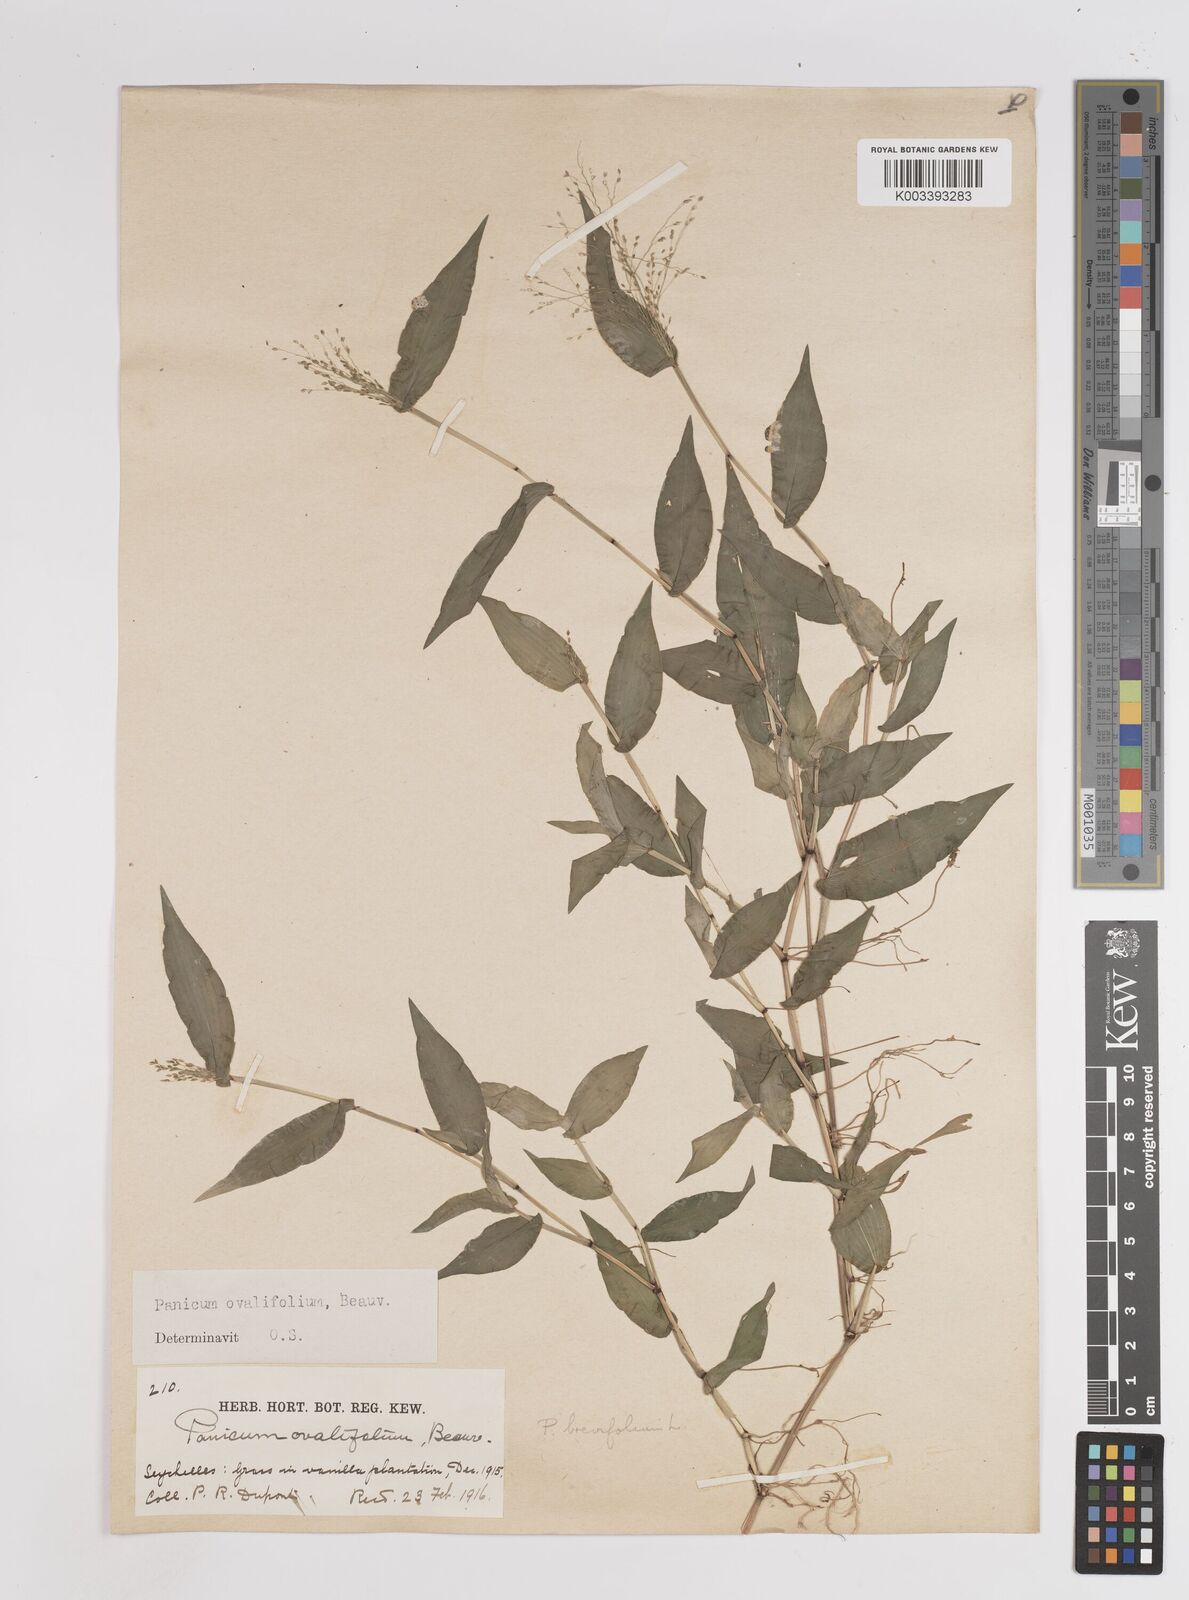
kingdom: Plantae
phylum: Tracheophyta
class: Liliopsida
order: Poales
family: Poaceae
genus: Panicum
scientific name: Panicum brevifolium
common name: Shortleaf panic grass
